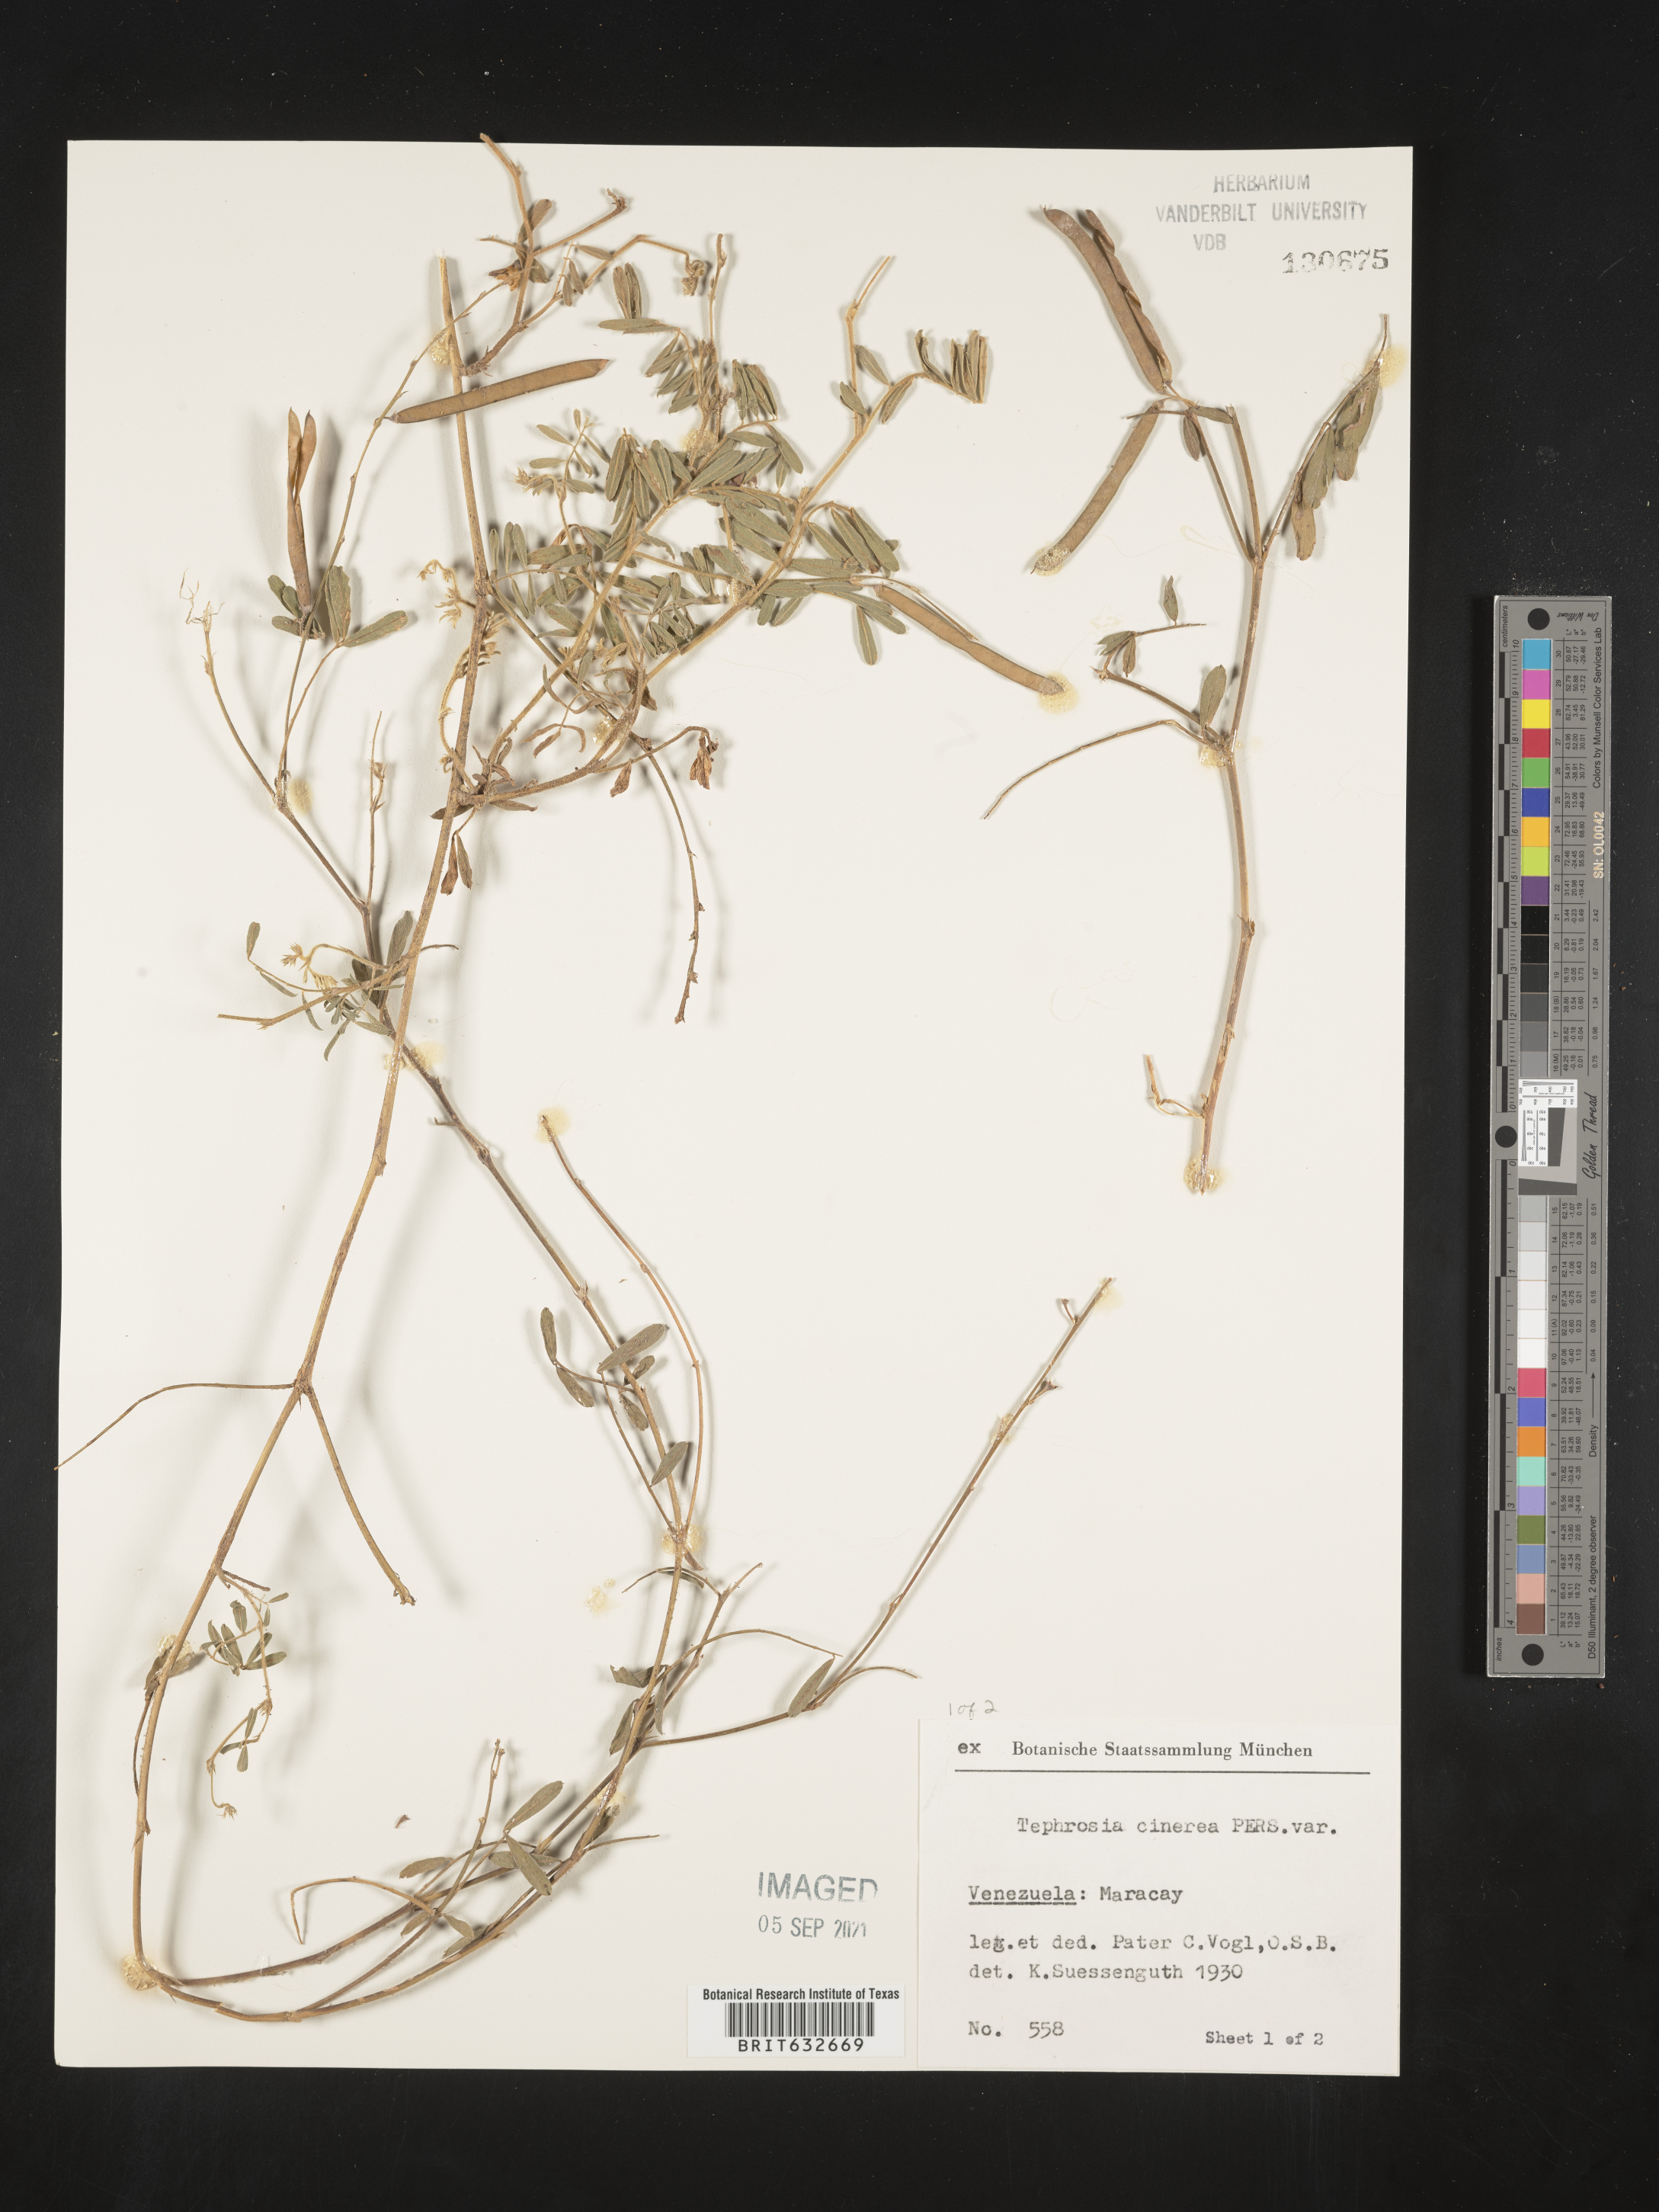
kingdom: Plantae
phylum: Tracheophyta
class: Magnoliopsida
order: Fabales
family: Fabaceae
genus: Tephrosia
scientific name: Tephrosia
